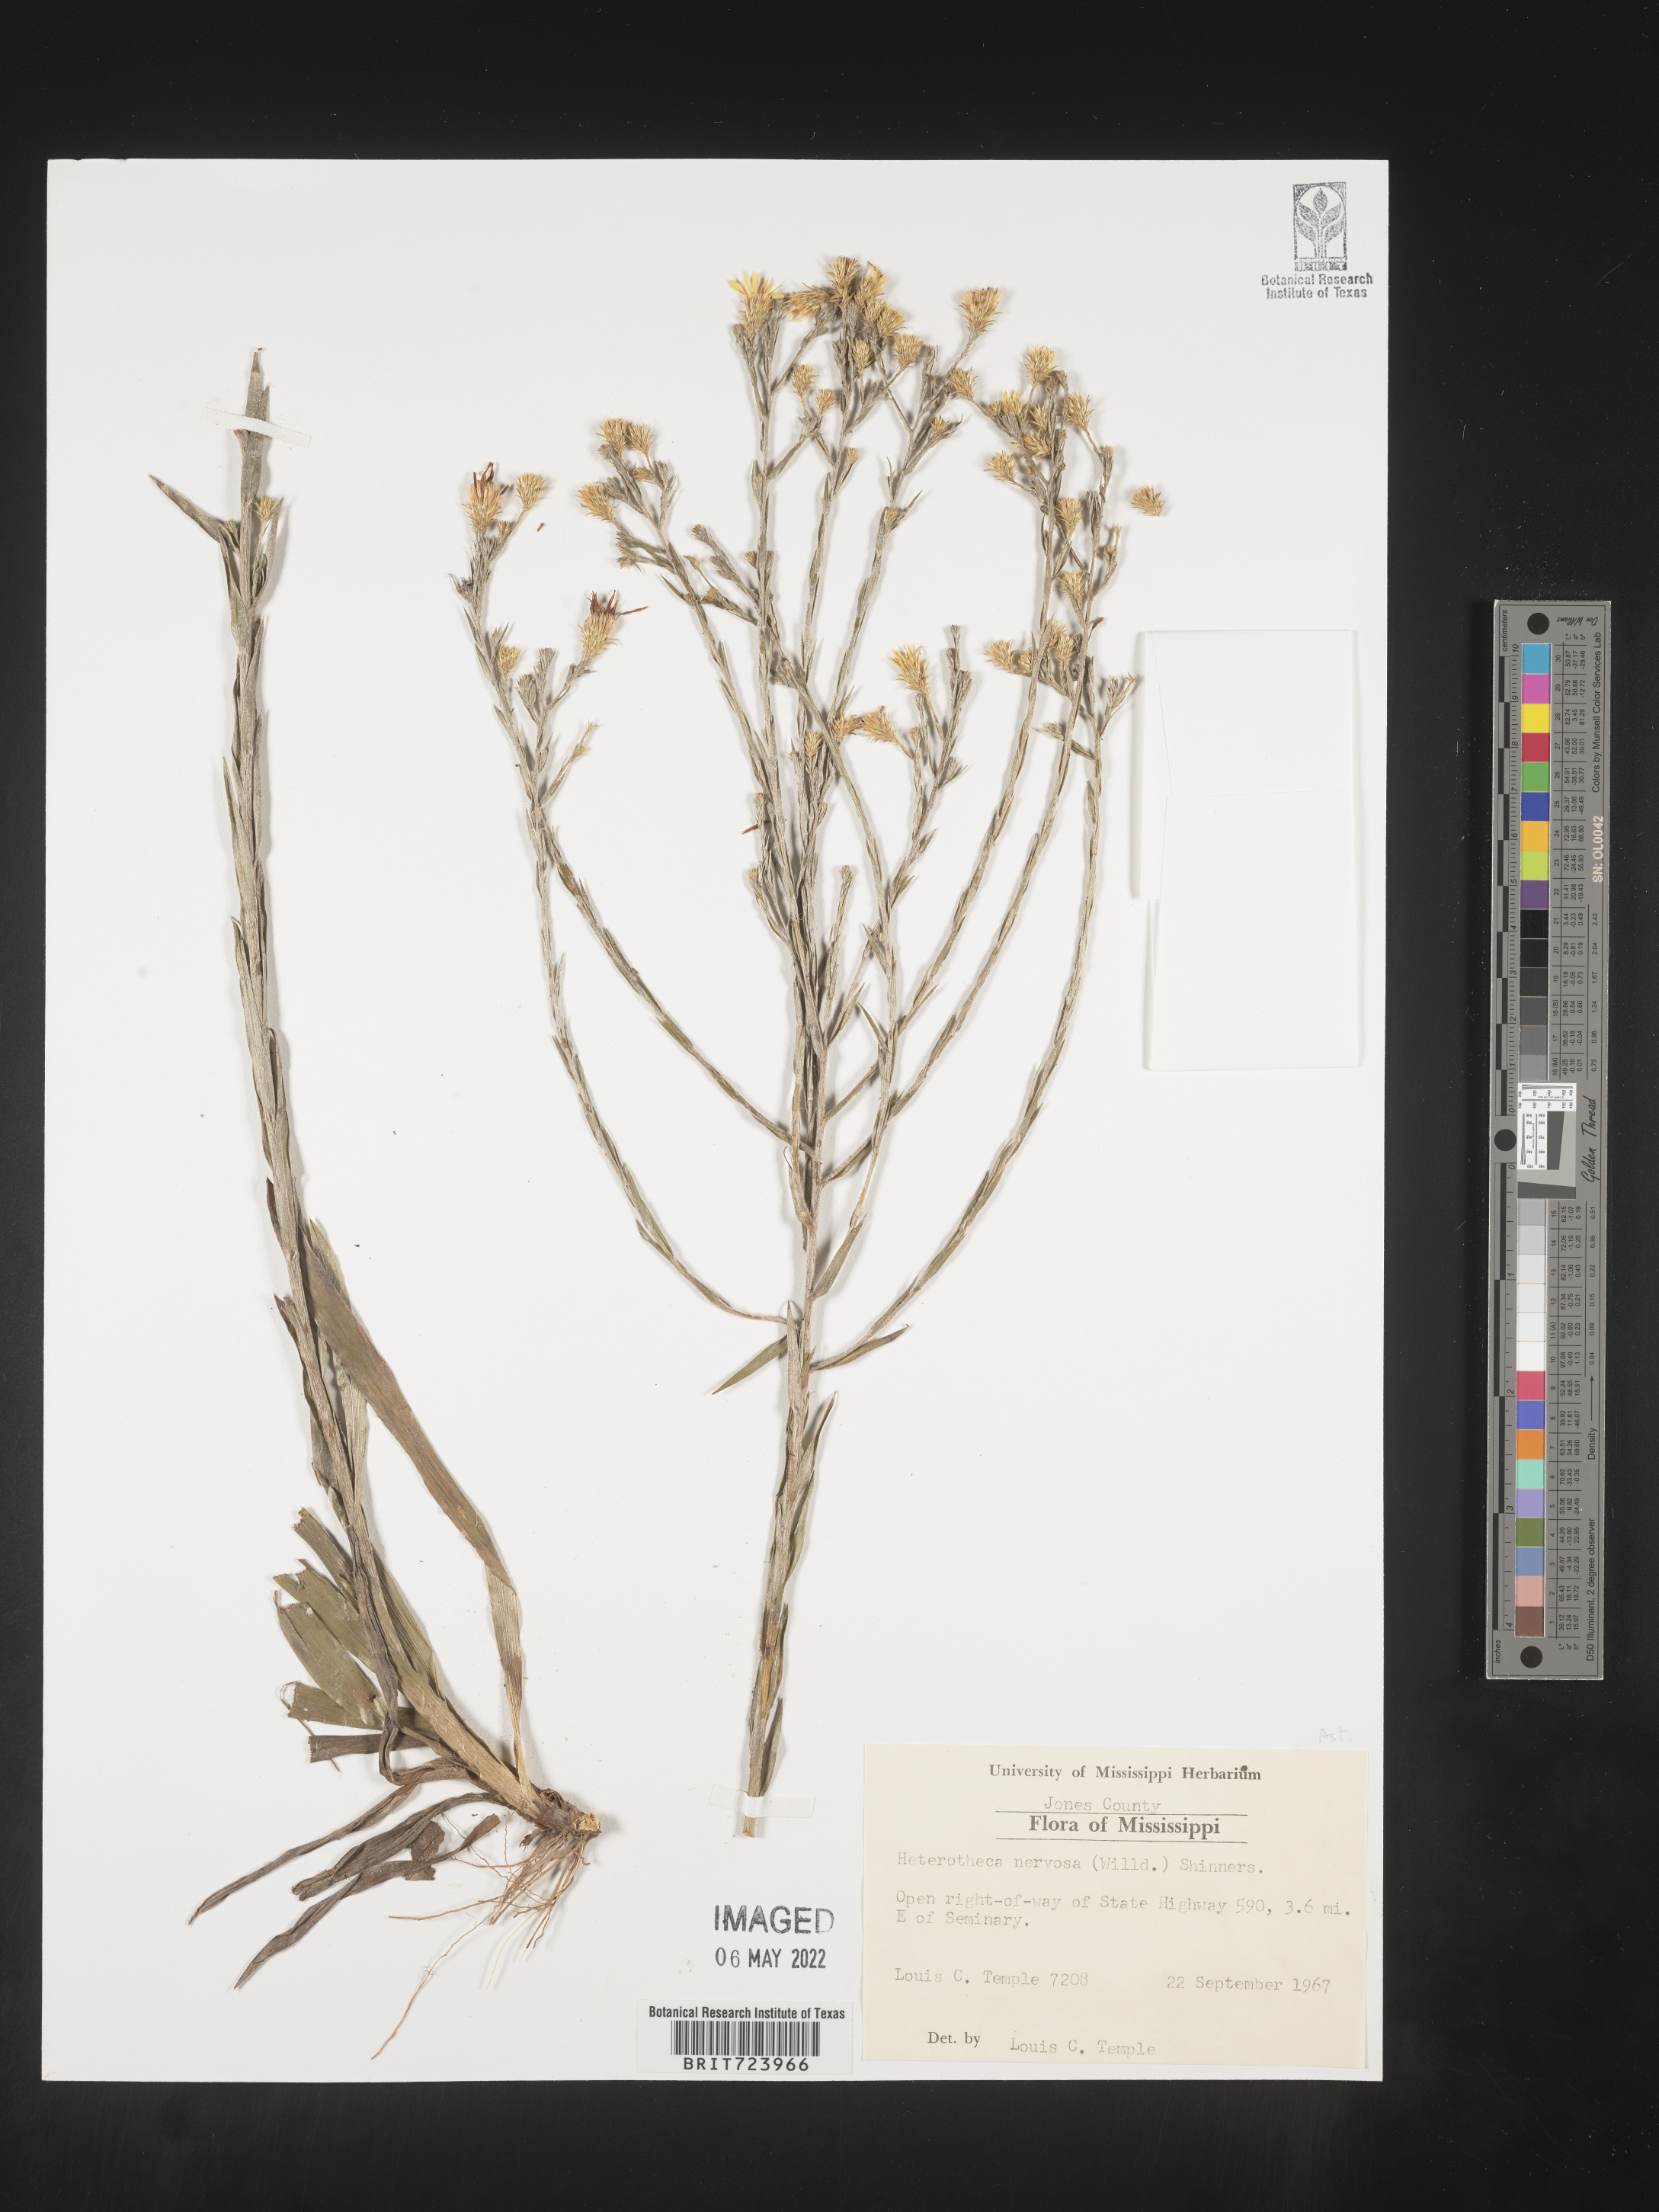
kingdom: Plantae
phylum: Tracheophyta
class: Magnoliopsida
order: Asterales
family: Asteraceae
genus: Pityopsis
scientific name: Pityopsis graminifolia
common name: Grass-leaf golden-aster
